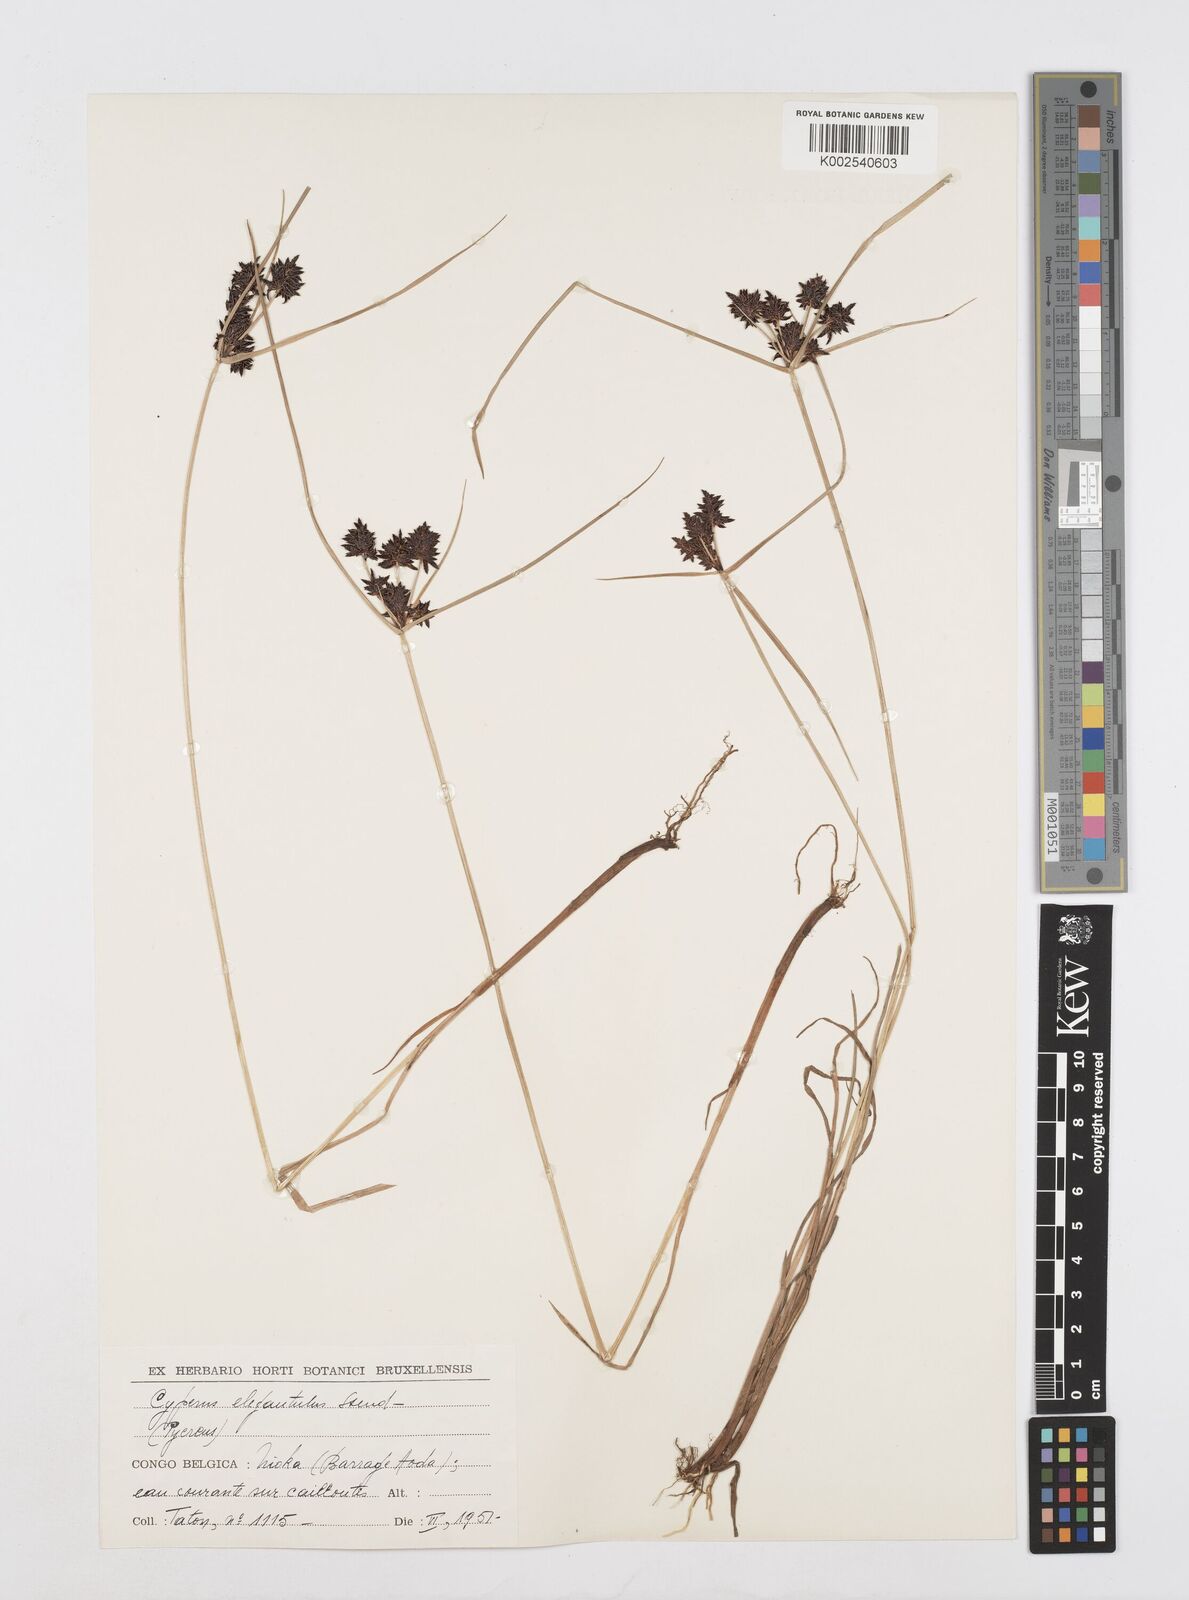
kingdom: Plantae
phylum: Tracheophyta
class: Liliopsida
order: Poales
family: Cyperaceae
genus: Cyperus
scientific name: Cyperus elegantulus
